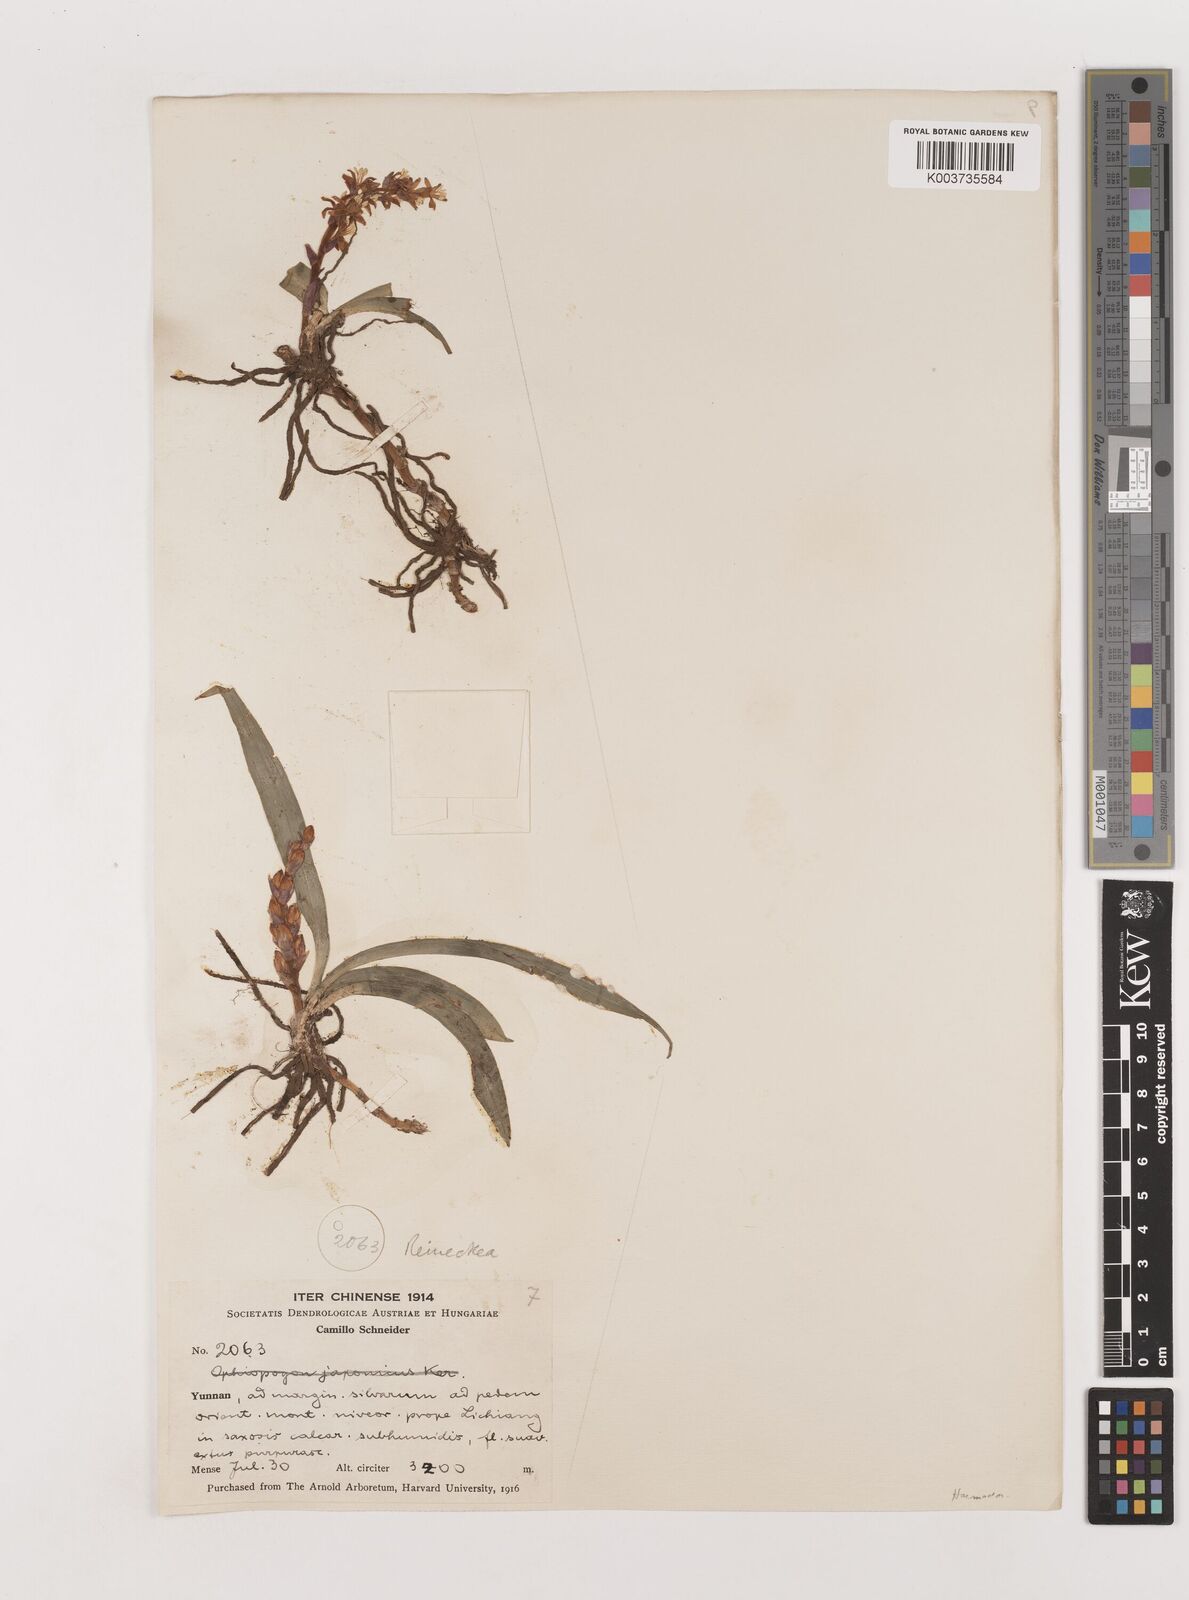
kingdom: Plantae
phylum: Tracheophyta
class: Liliopsida
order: Asparagales
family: Asparagaceae
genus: Reineckea
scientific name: Reineckea carnea
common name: Reineckea
